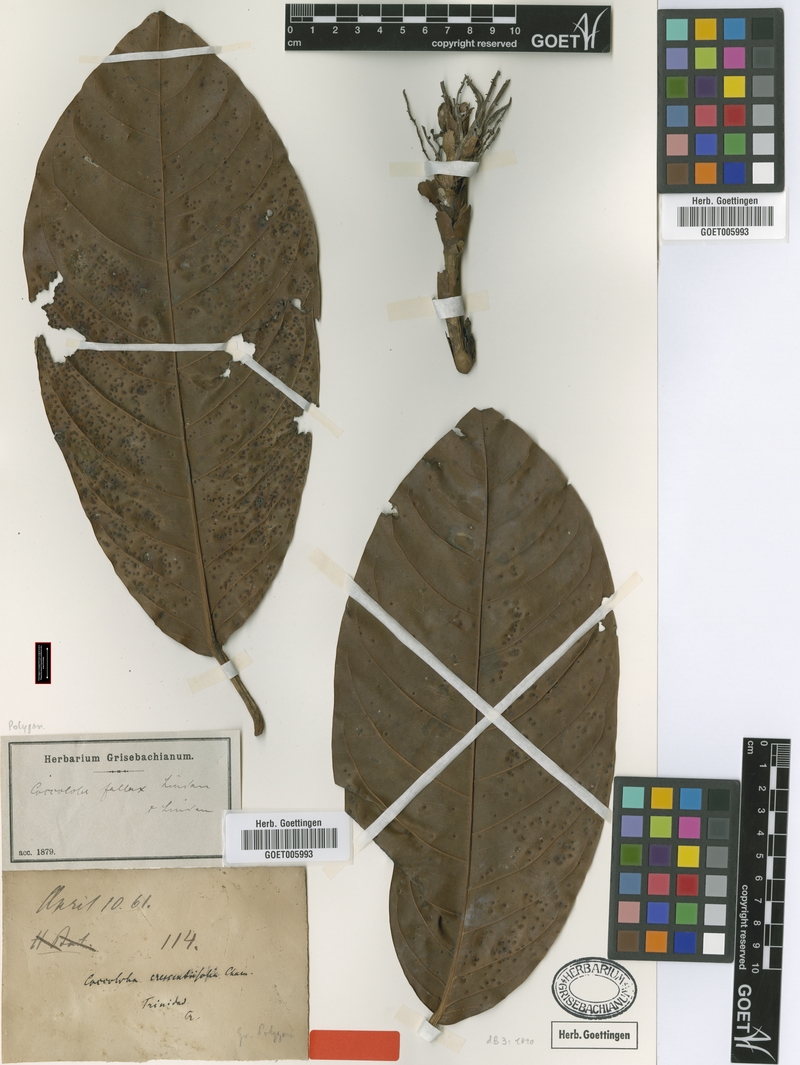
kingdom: Plantae
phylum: Tracheophyta
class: Magnoliopsida
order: Caryophyllales
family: Polygonaceae
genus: Coccoloba
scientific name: Coccoloba fallax
